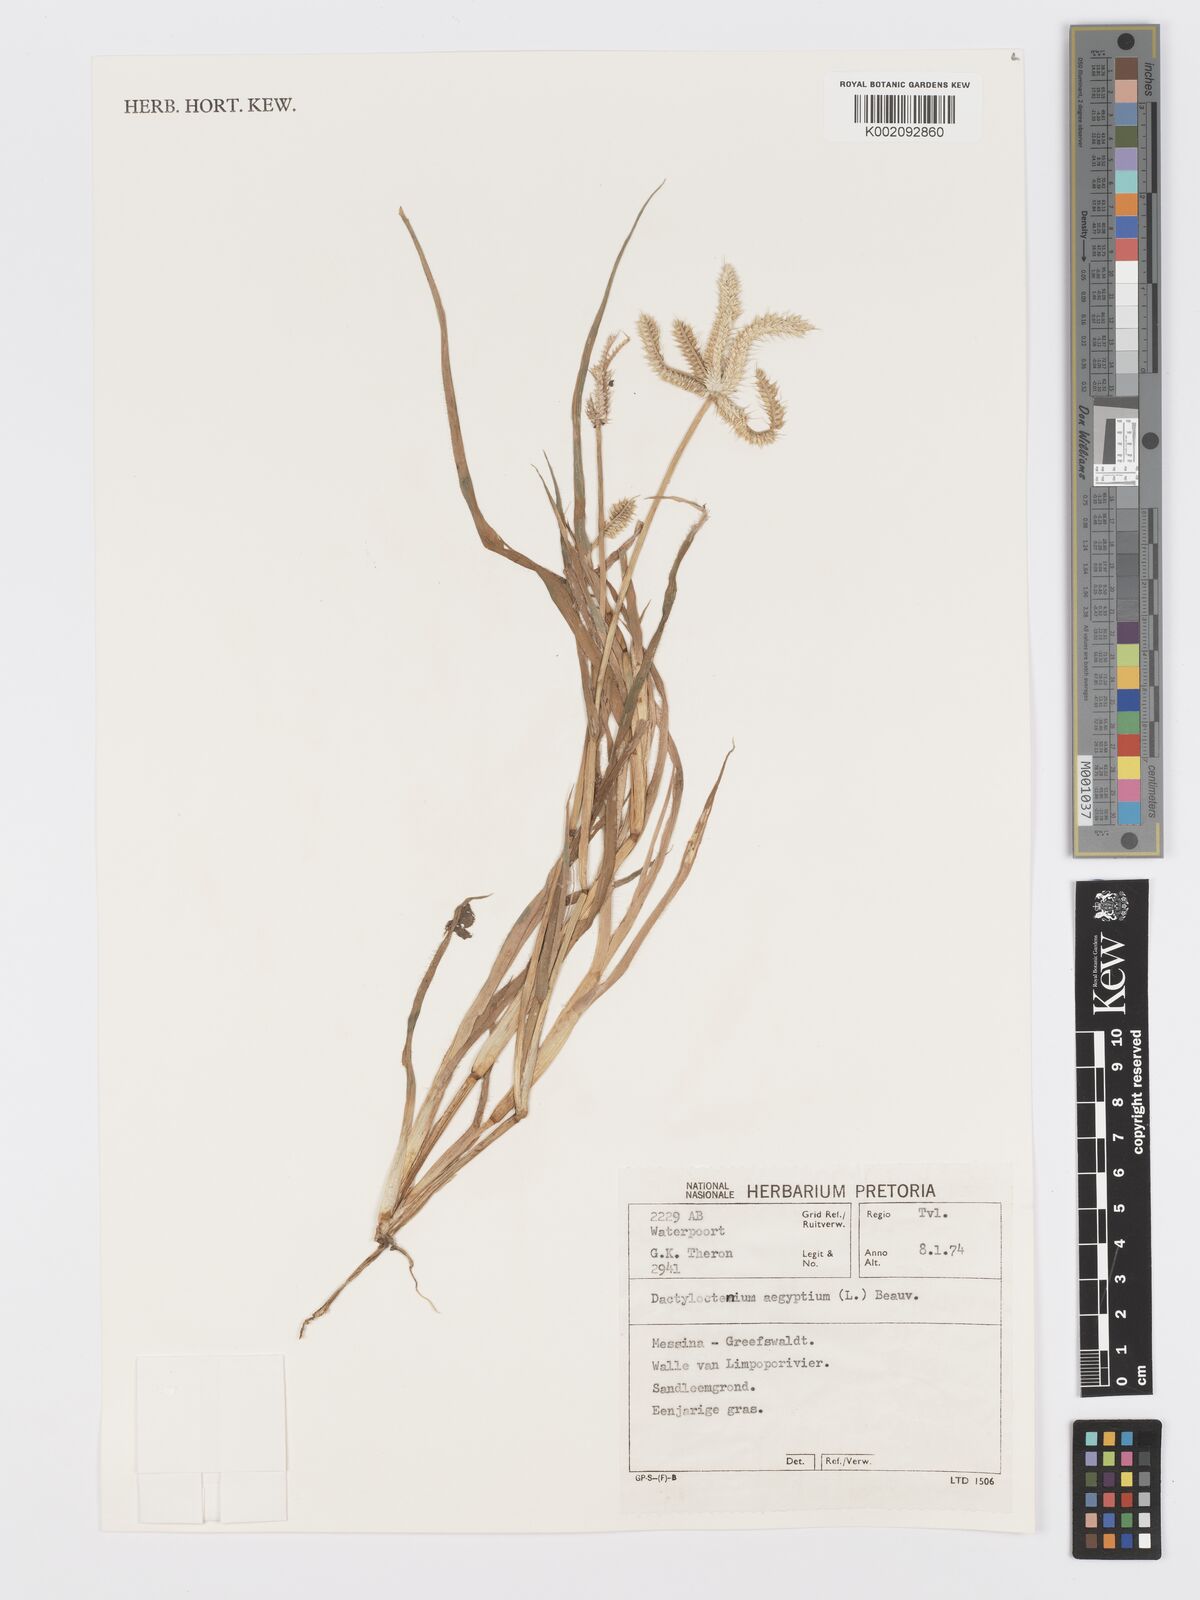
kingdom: Plantae
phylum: Tracheophyta
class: Liliopsida
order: Poales
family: Poaceae
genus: Dactyloctenium
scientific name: Dactyloctenium aegyptium
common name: Egyptian grass
